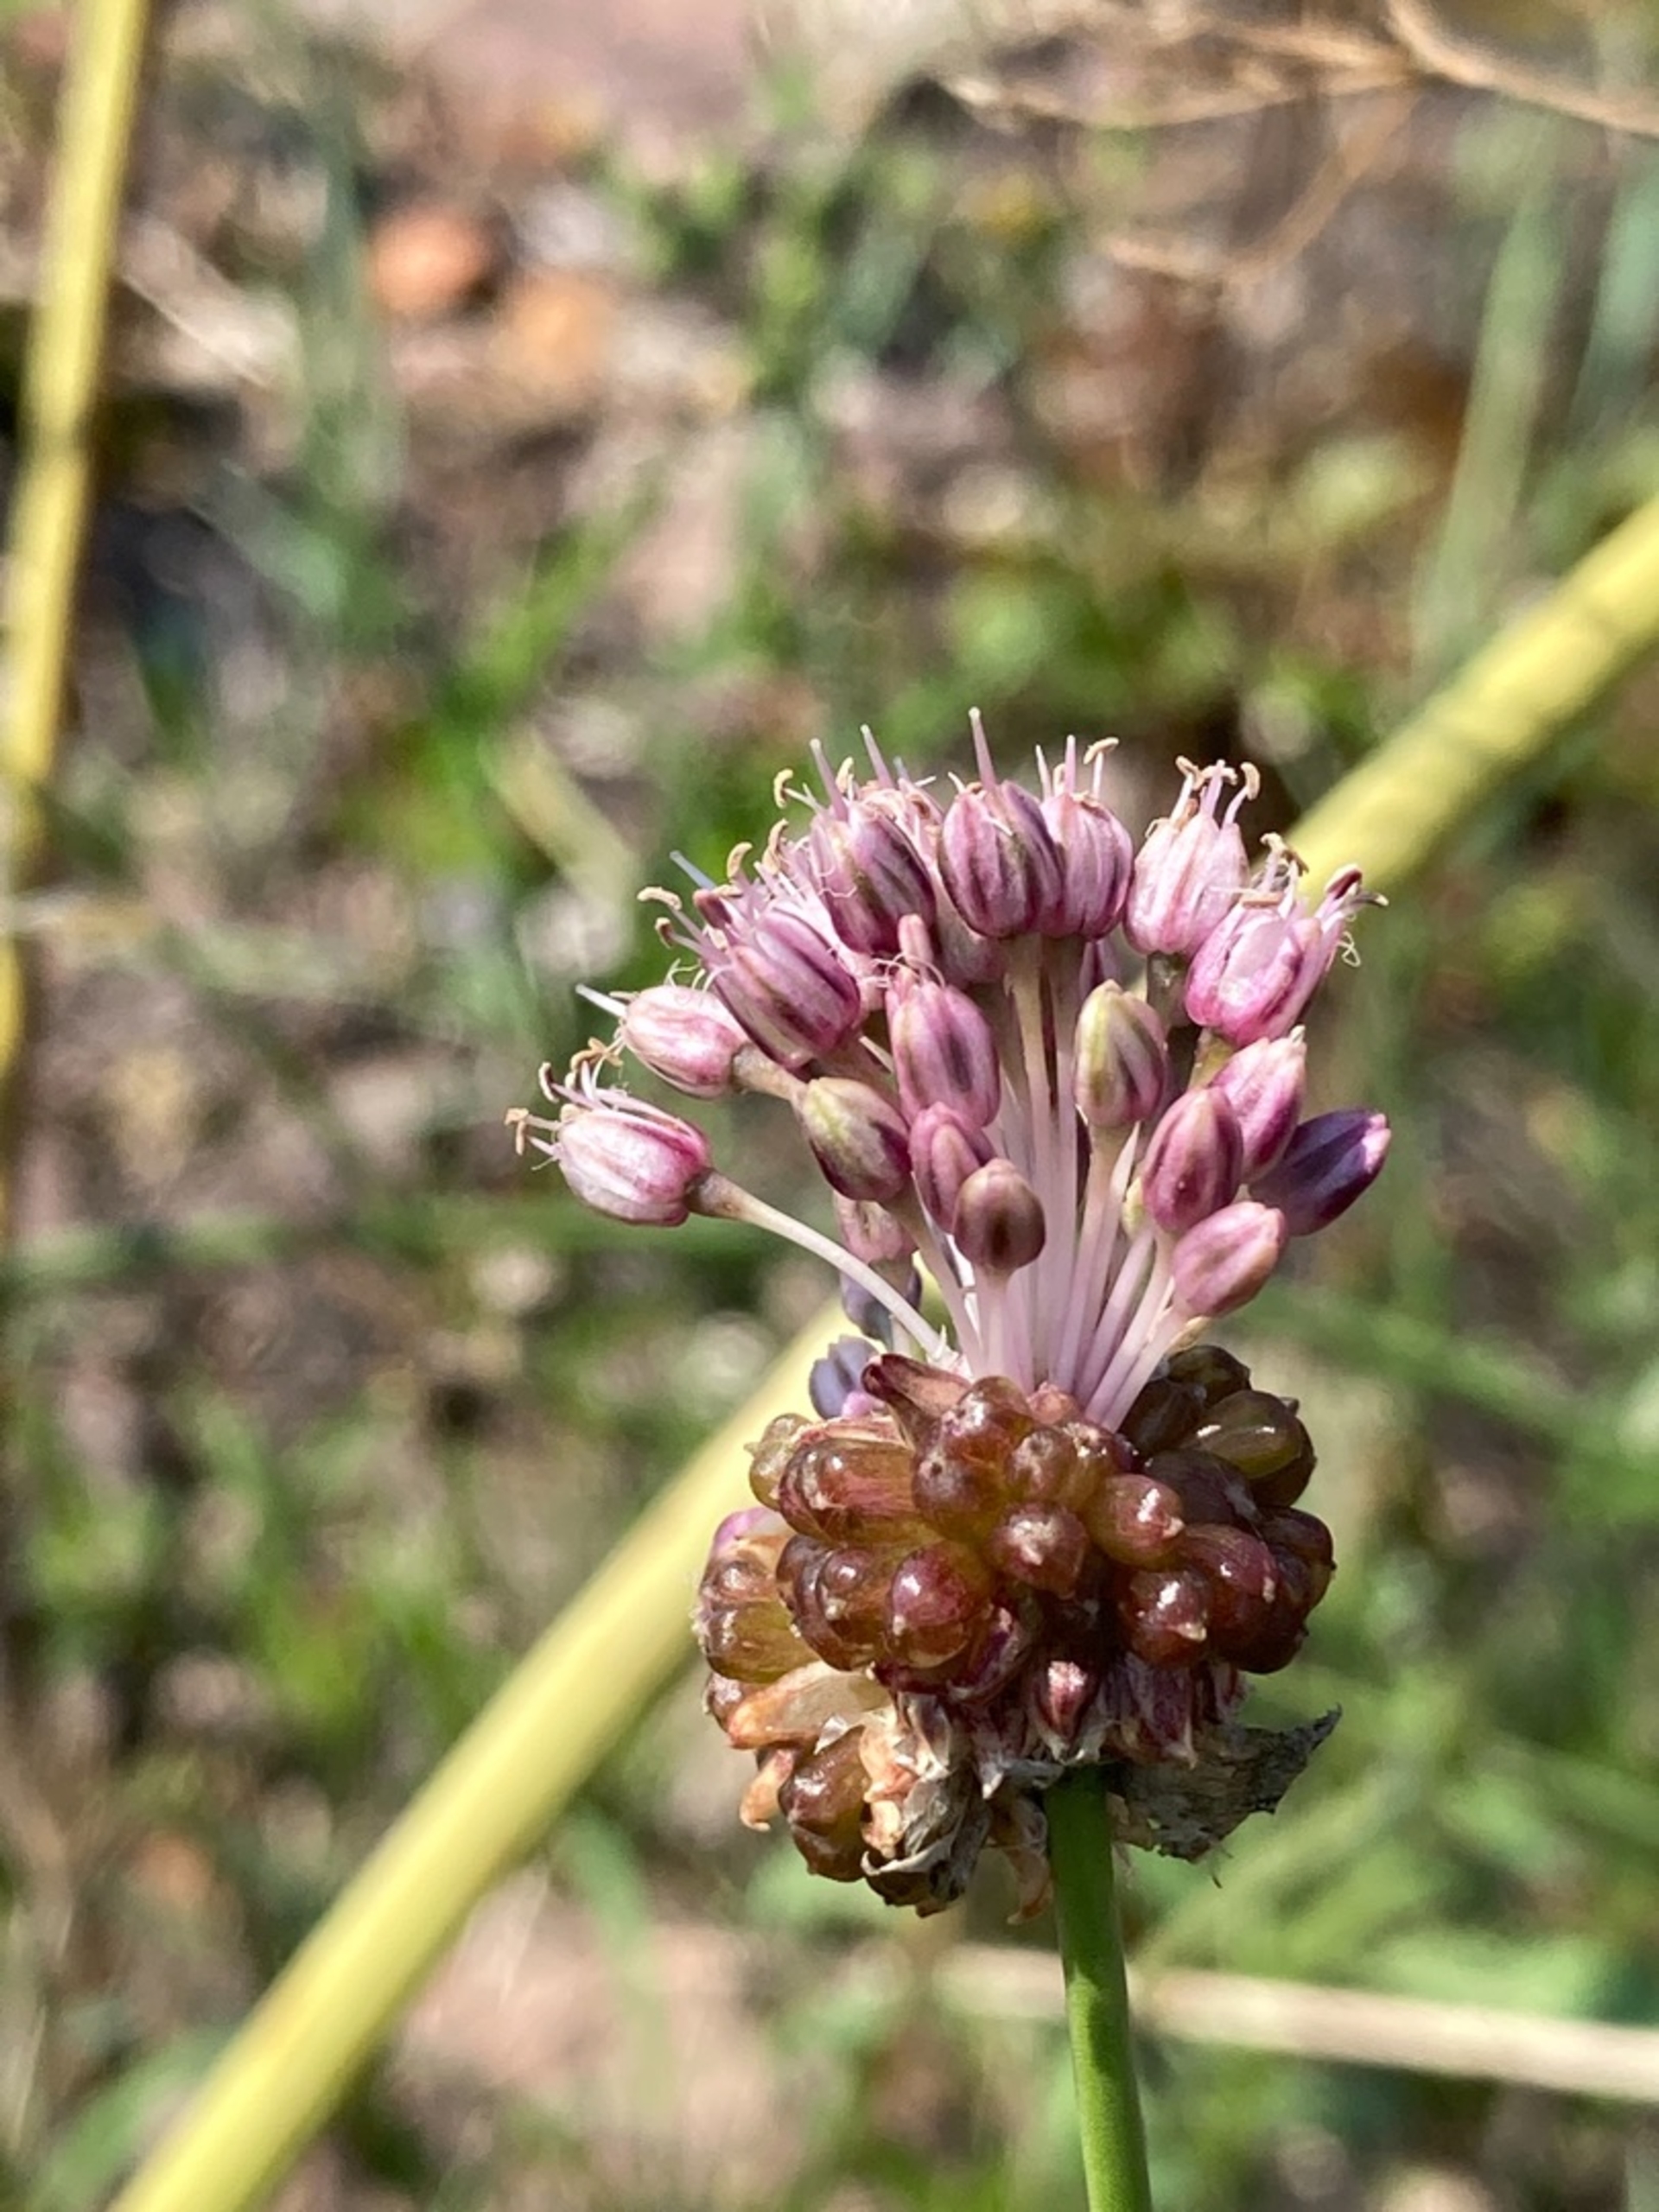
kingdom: Plantae
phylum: Tracheophyta
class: Liliopsida
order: Asparagales
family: Amaryllidaceae
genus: Allium
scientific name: Allium vineale
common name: Sand-løg
